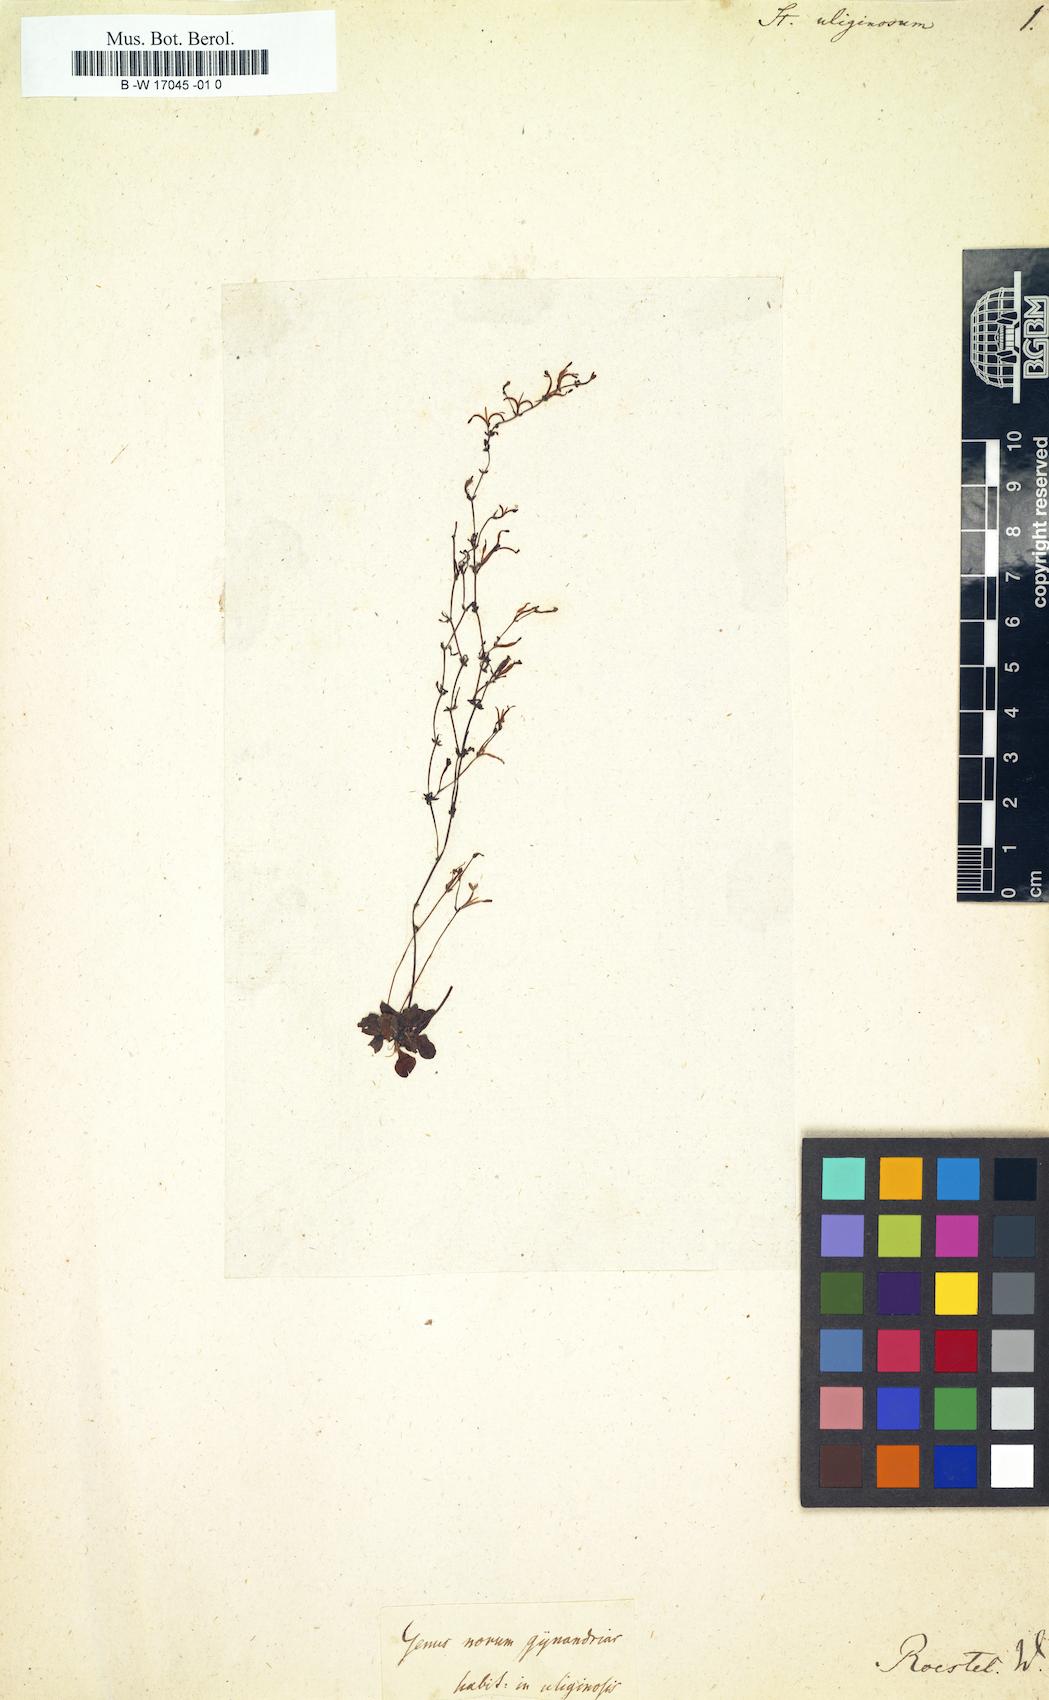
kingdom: Plantae
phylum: Tracheophyta
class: Magnoliopsida
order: Asterales
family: Stylidiaceae
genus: Stylidium
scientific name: Stylidium uliginosum
